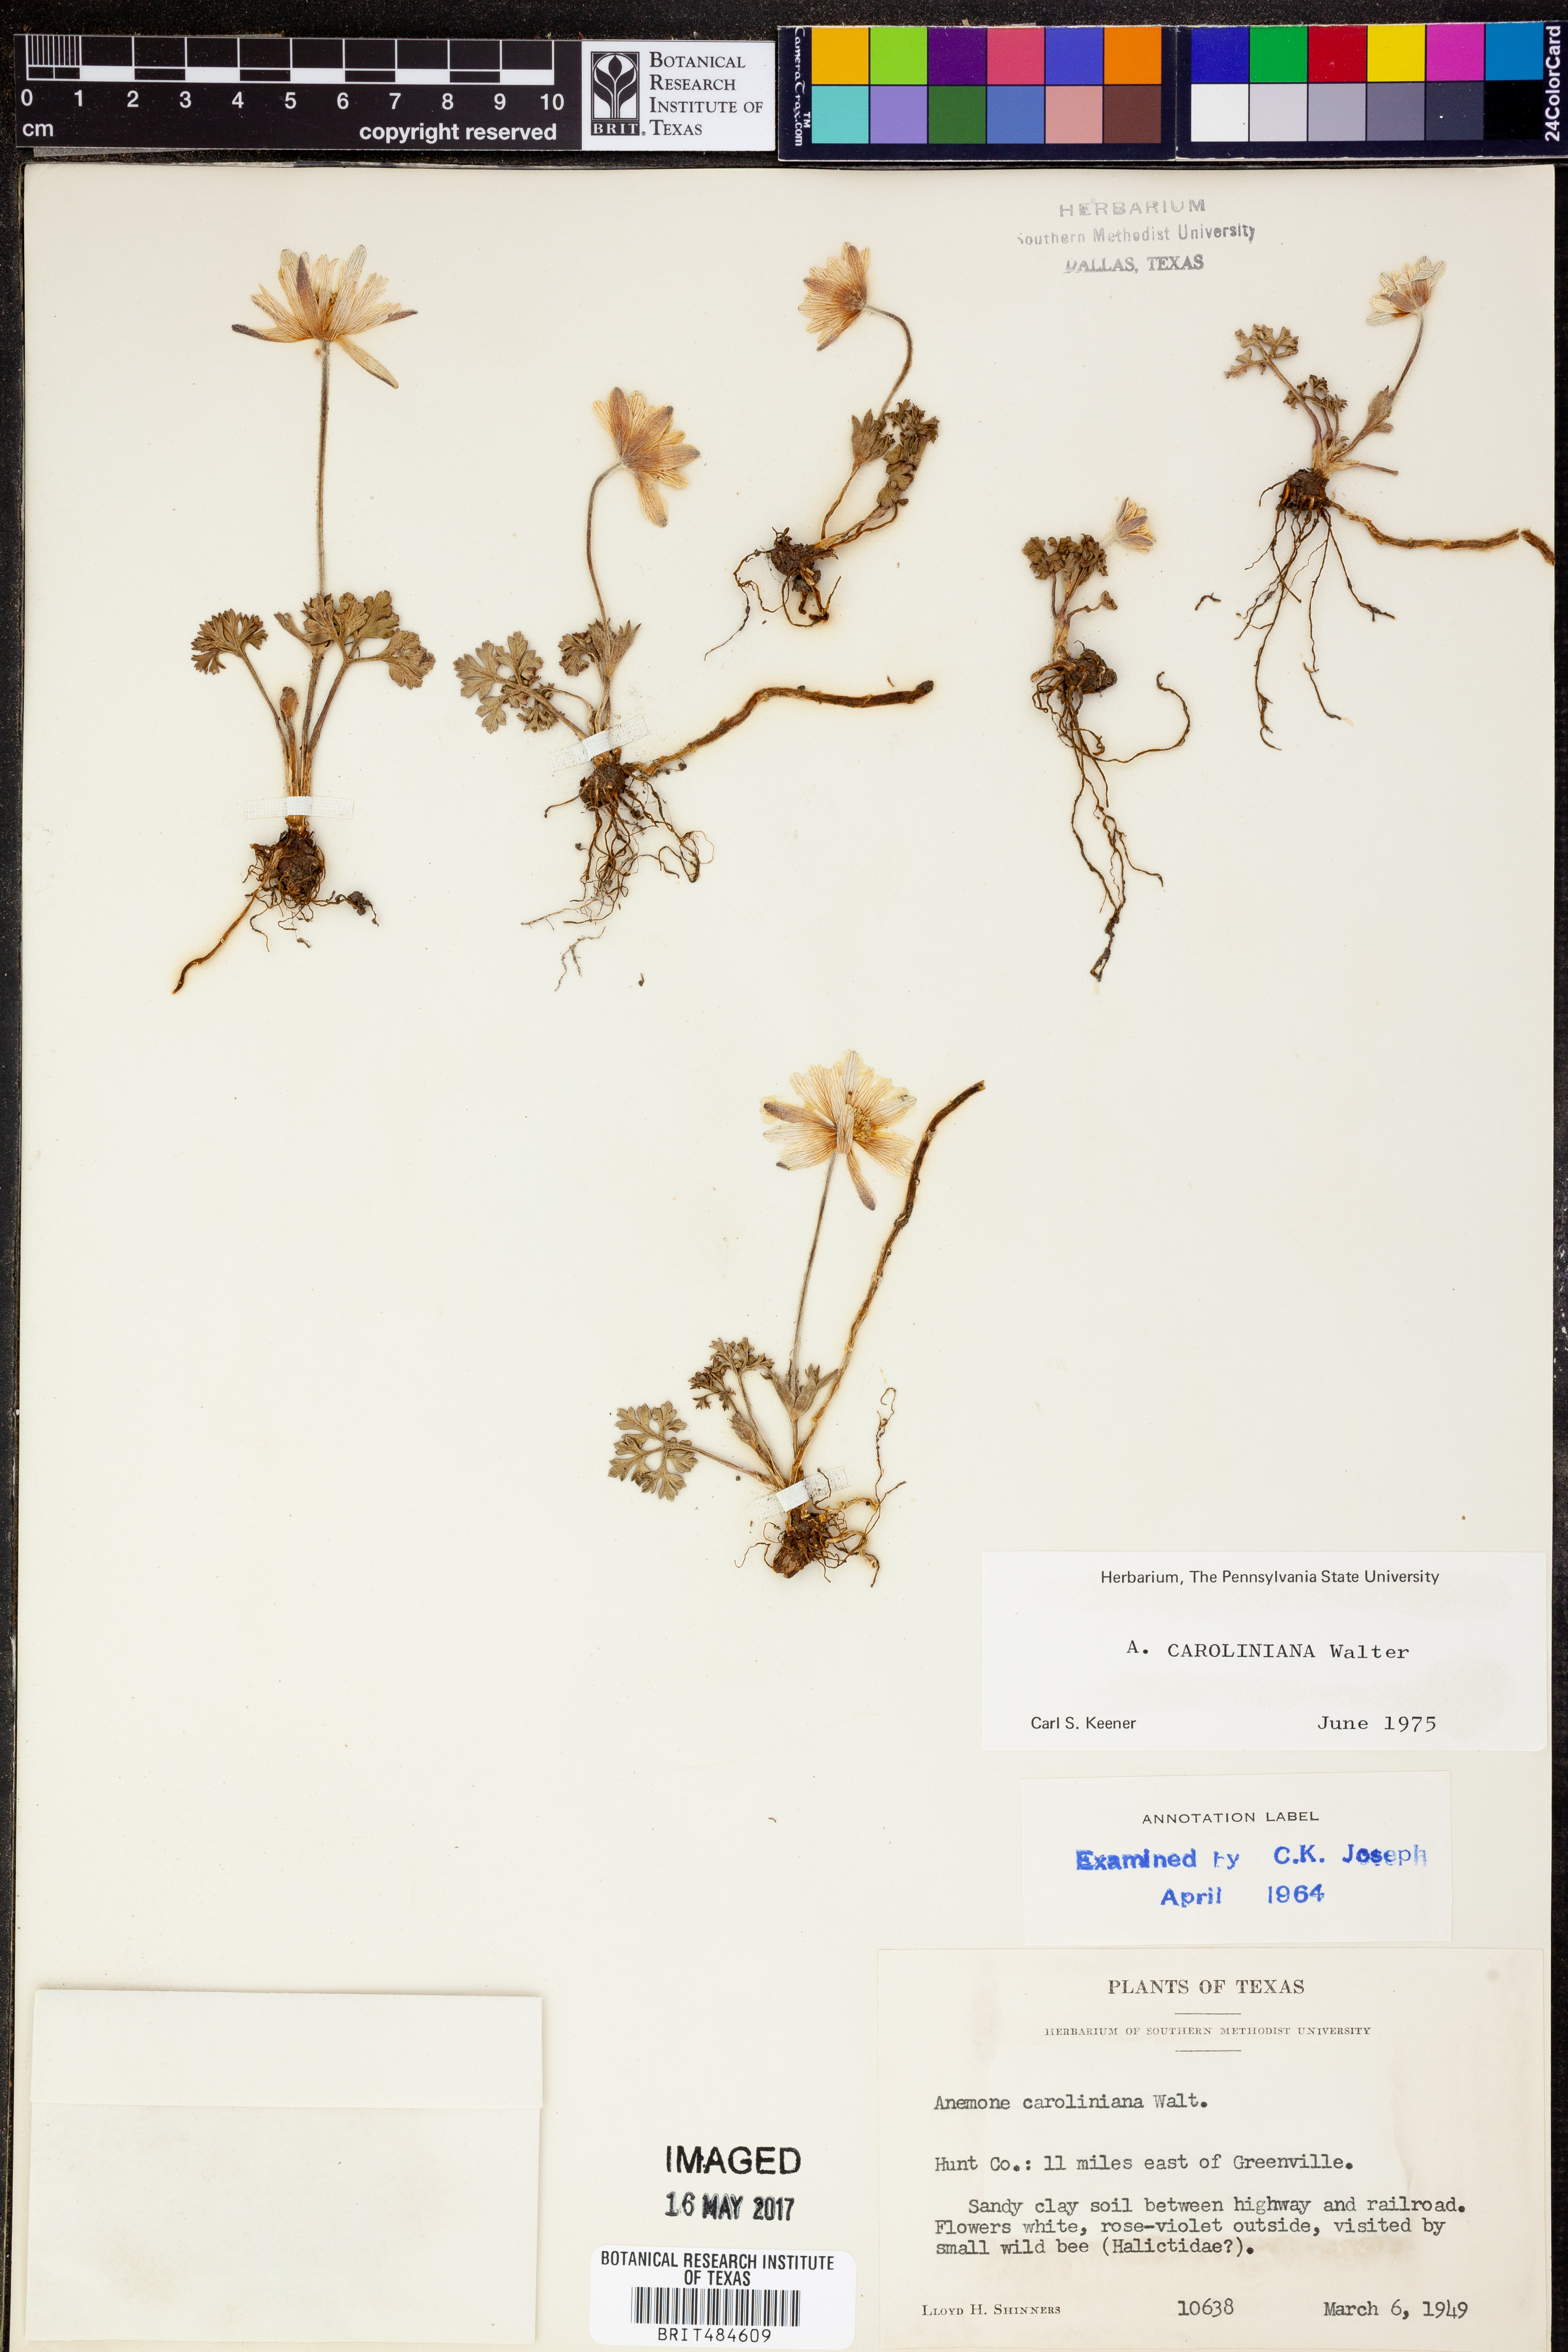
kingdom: Plantae
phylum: Tracheophyta
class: Magnoliopsida
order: Ranunculales
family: Ranunculaceae
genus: Anemone
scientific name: Anemone caroliniana
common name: Carolina anemone
